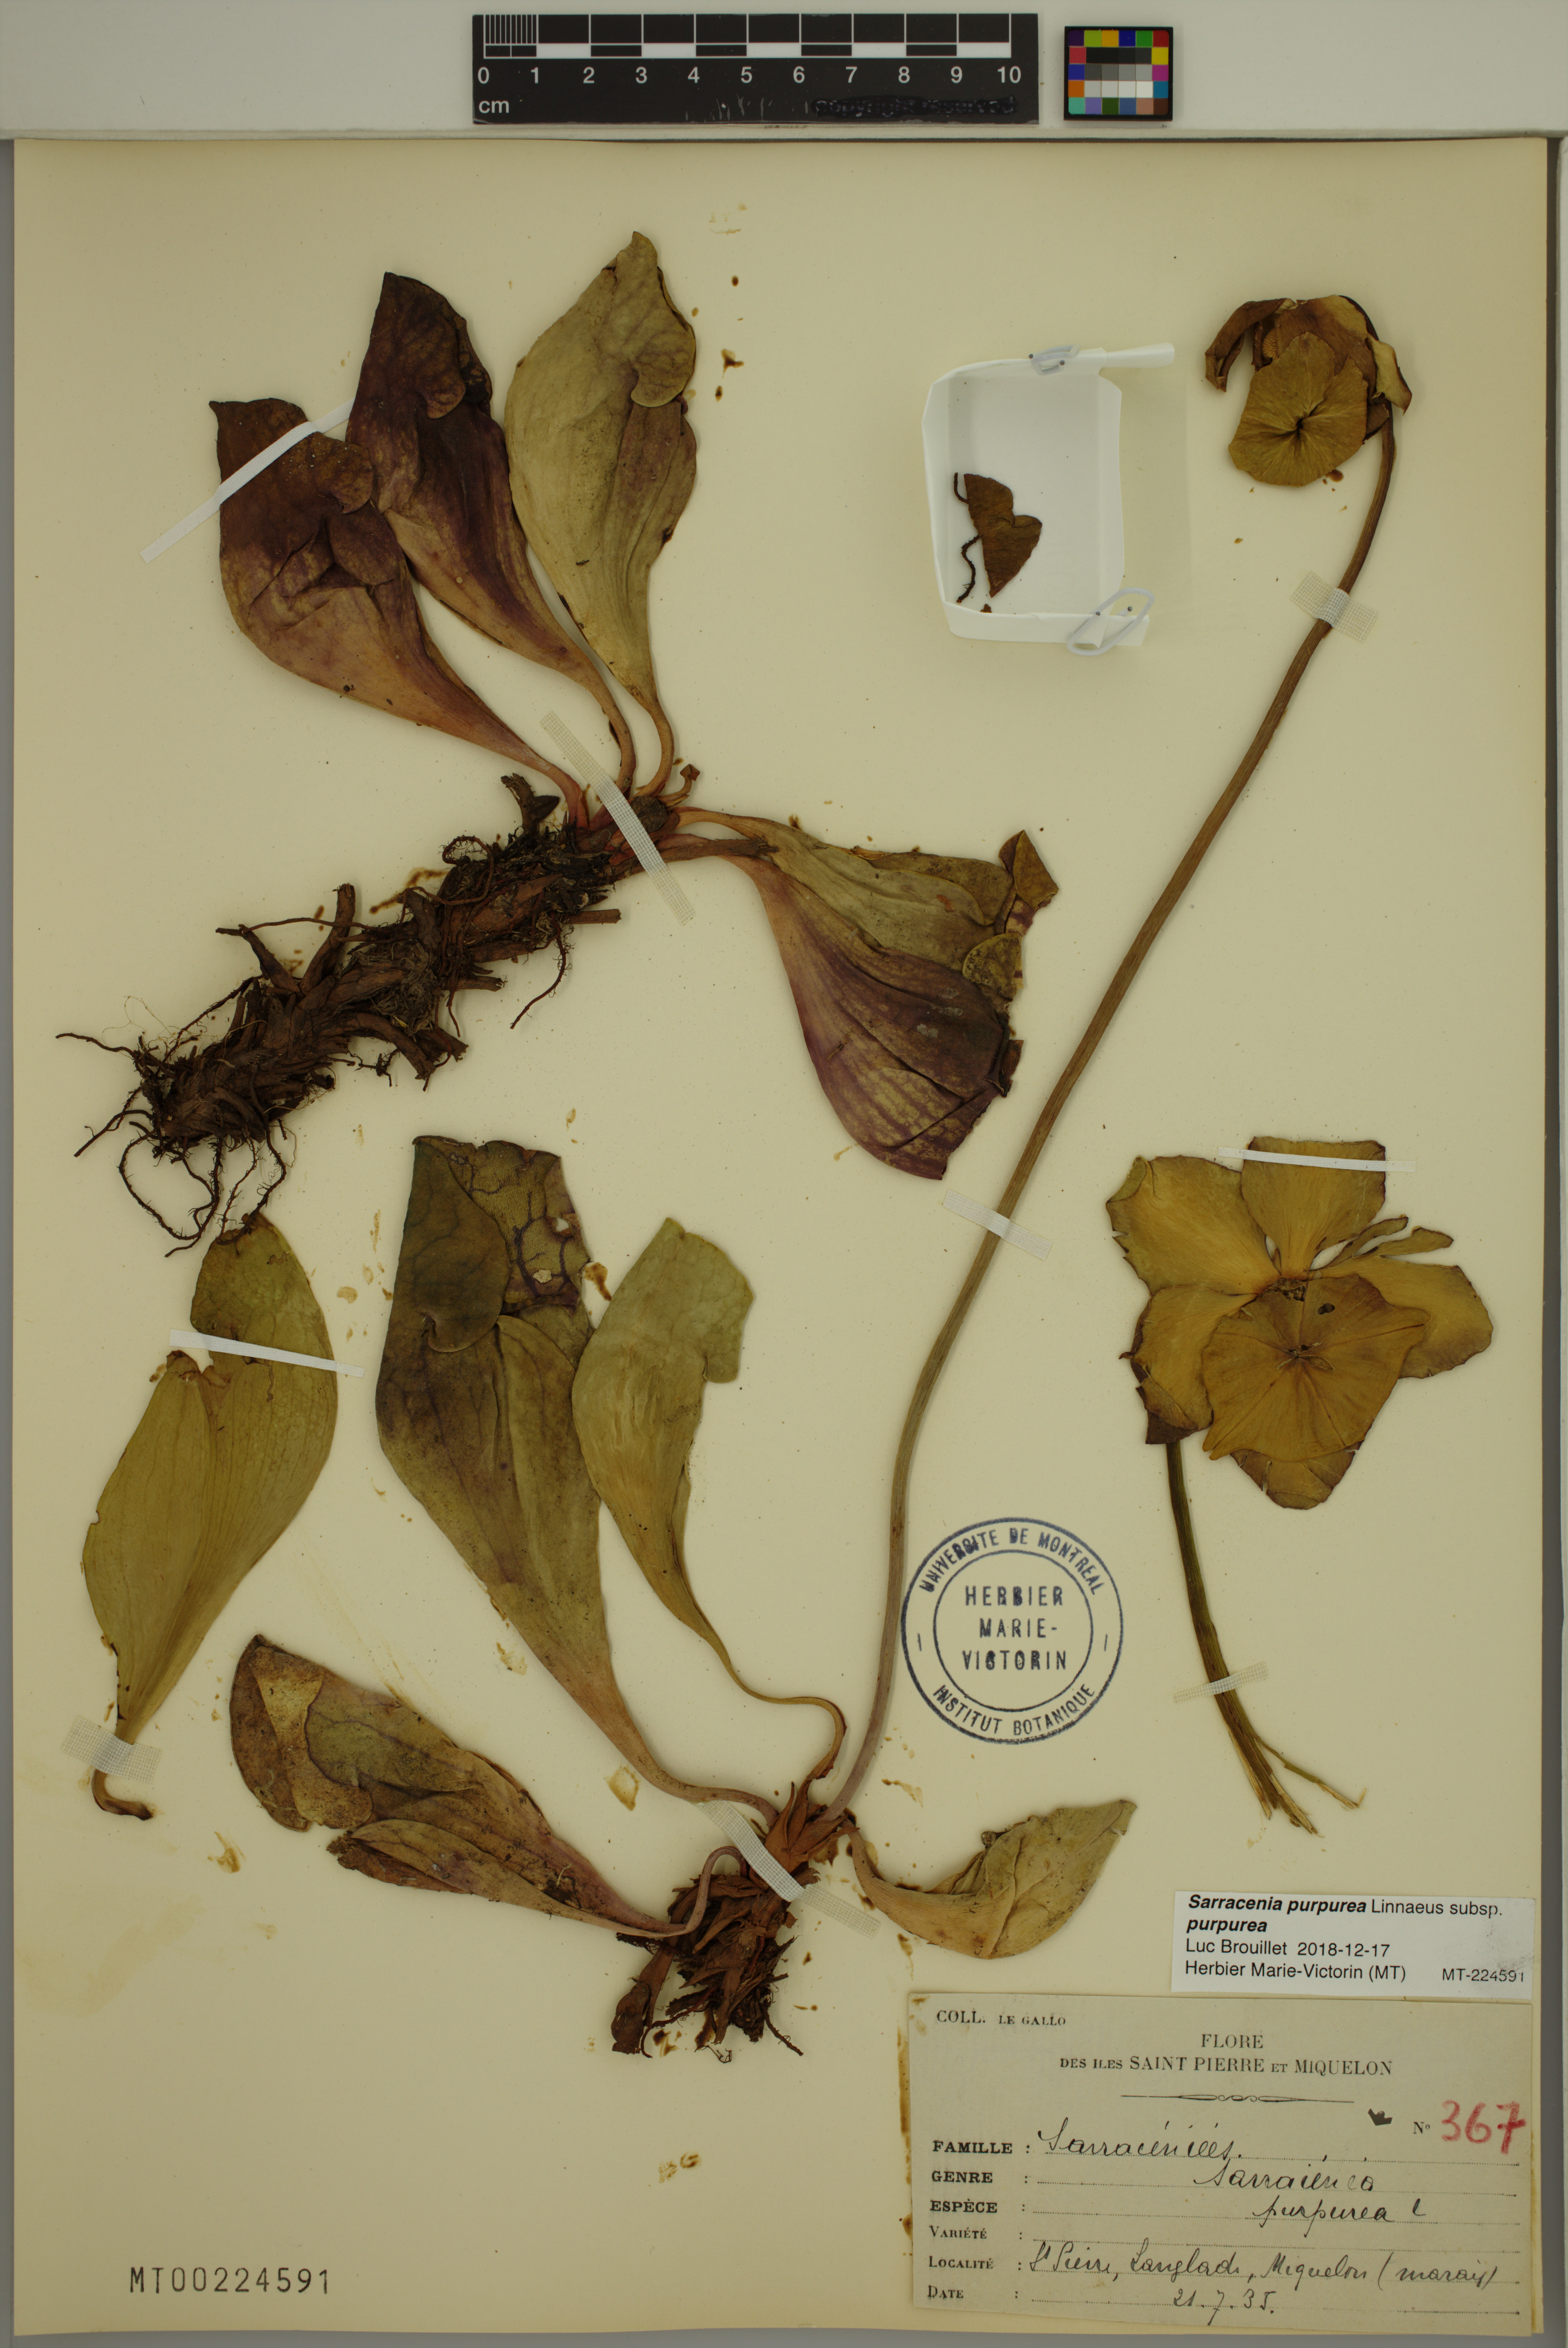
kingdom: Plantae
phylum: Tracheophyta
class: Magnoliopsida
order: Ericales
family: Sarraceniaceae
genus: Sarracenia
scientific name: Sarracenia purpurea
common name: Pitcherplant
